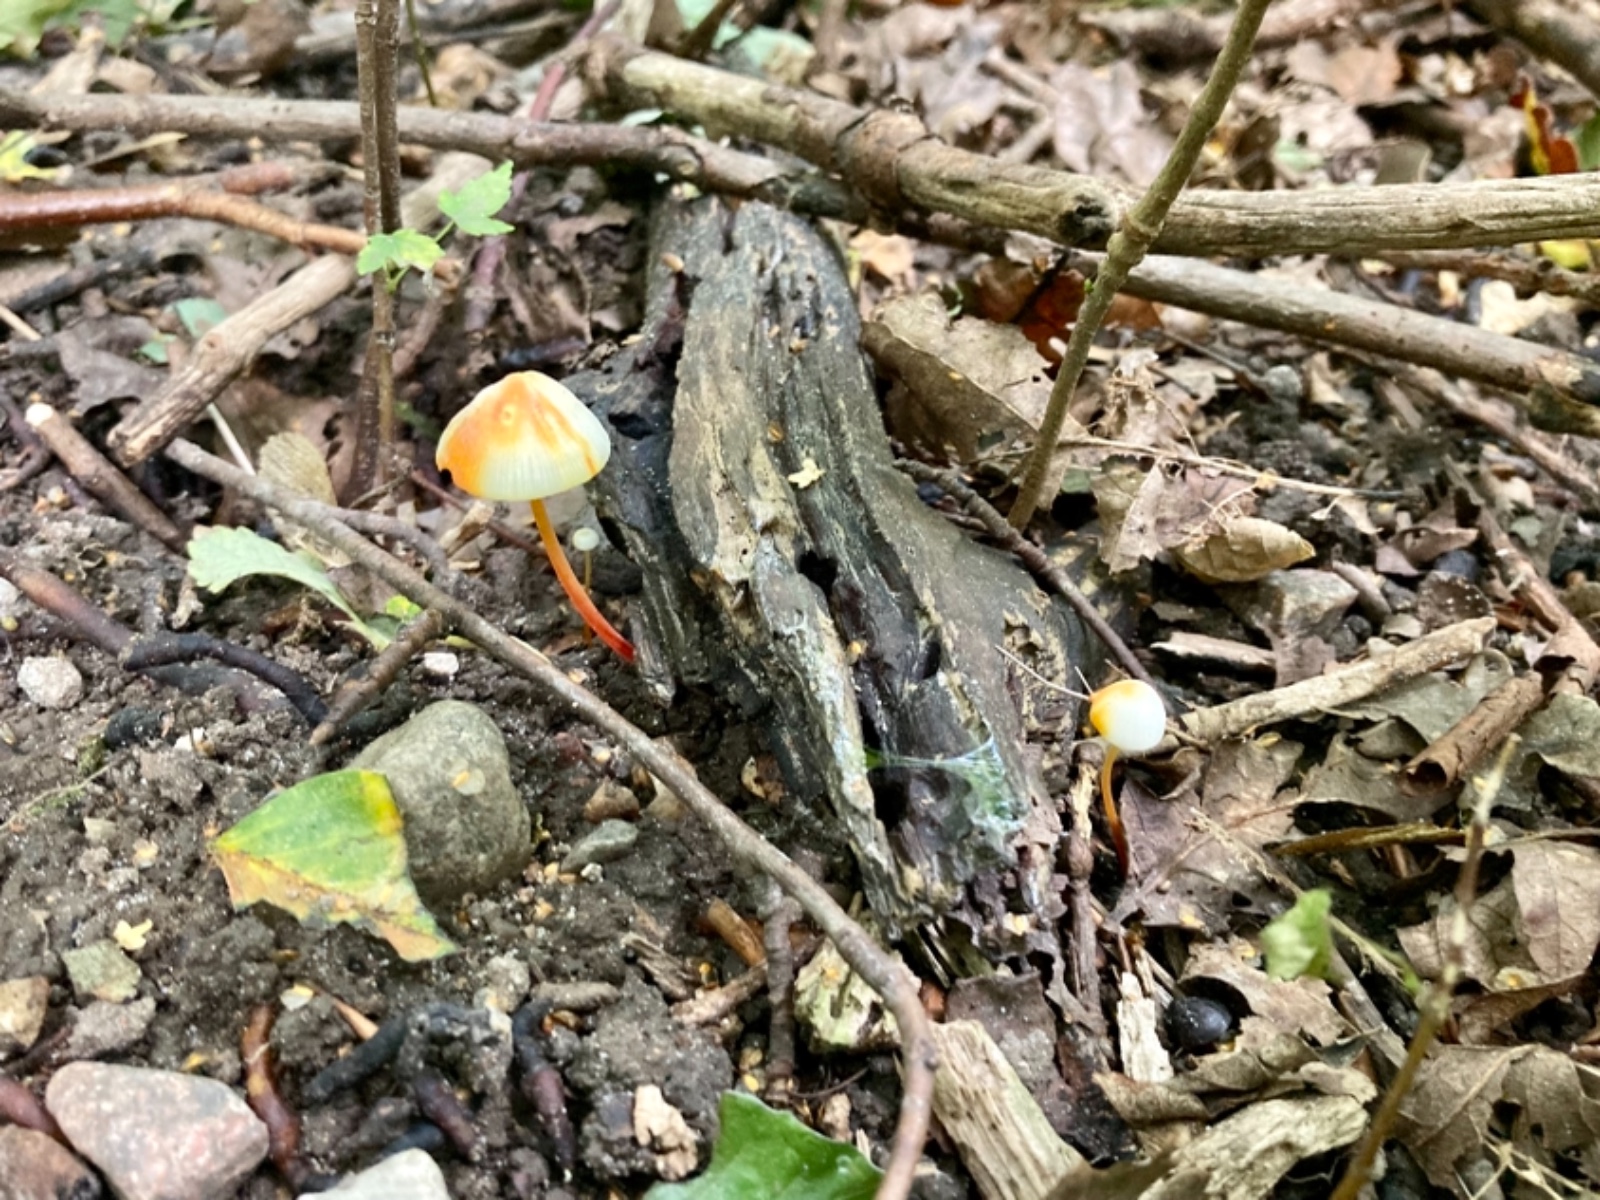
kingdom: Fungi
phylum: Basidiomycota
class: Agaricomycetes
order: Agaricales
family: Mycenaceae
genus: Mycena
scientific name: Mycena crocata
